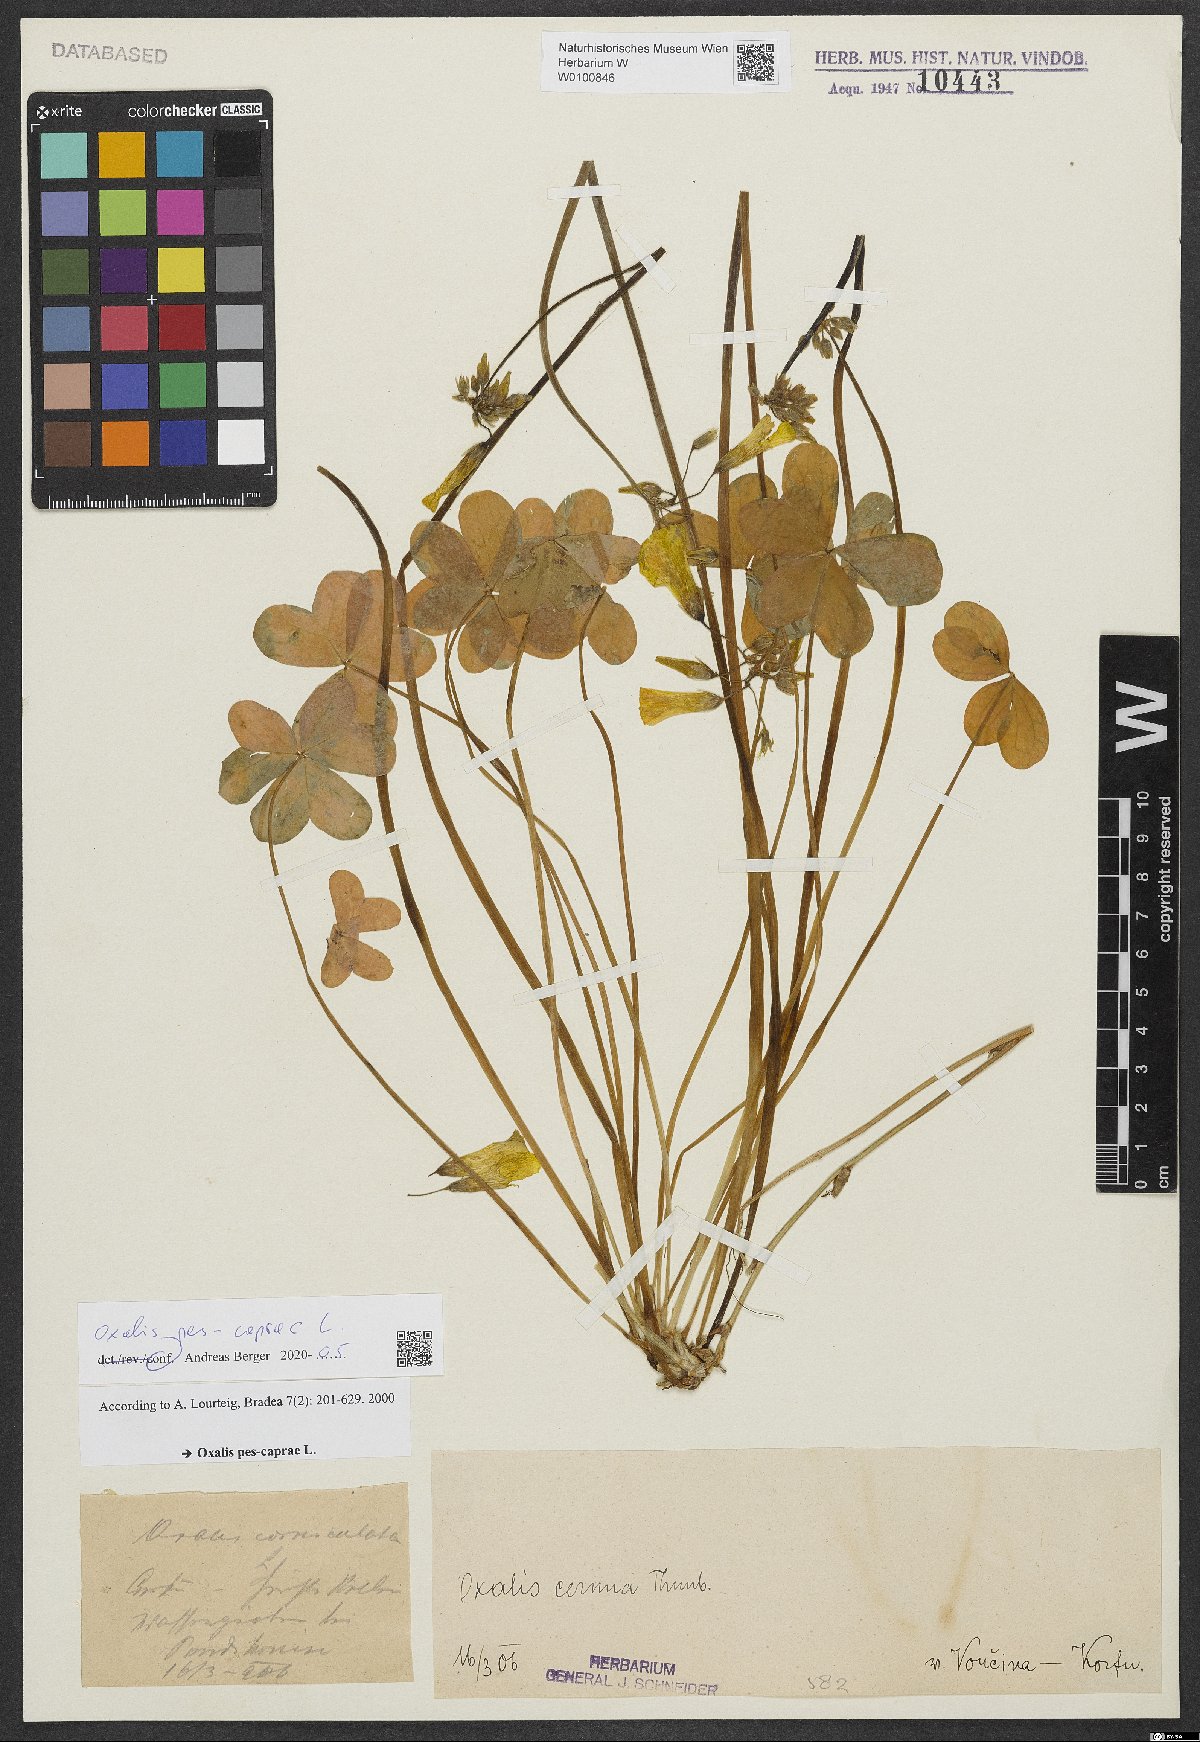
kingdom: Plantae
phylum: Tracheophyta
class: Magnoliopsida
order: Oxalidales
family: Oxalidaceae
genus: Oxalis
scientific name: Oxalis pes-caprae
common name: Bermuda-buttercup
